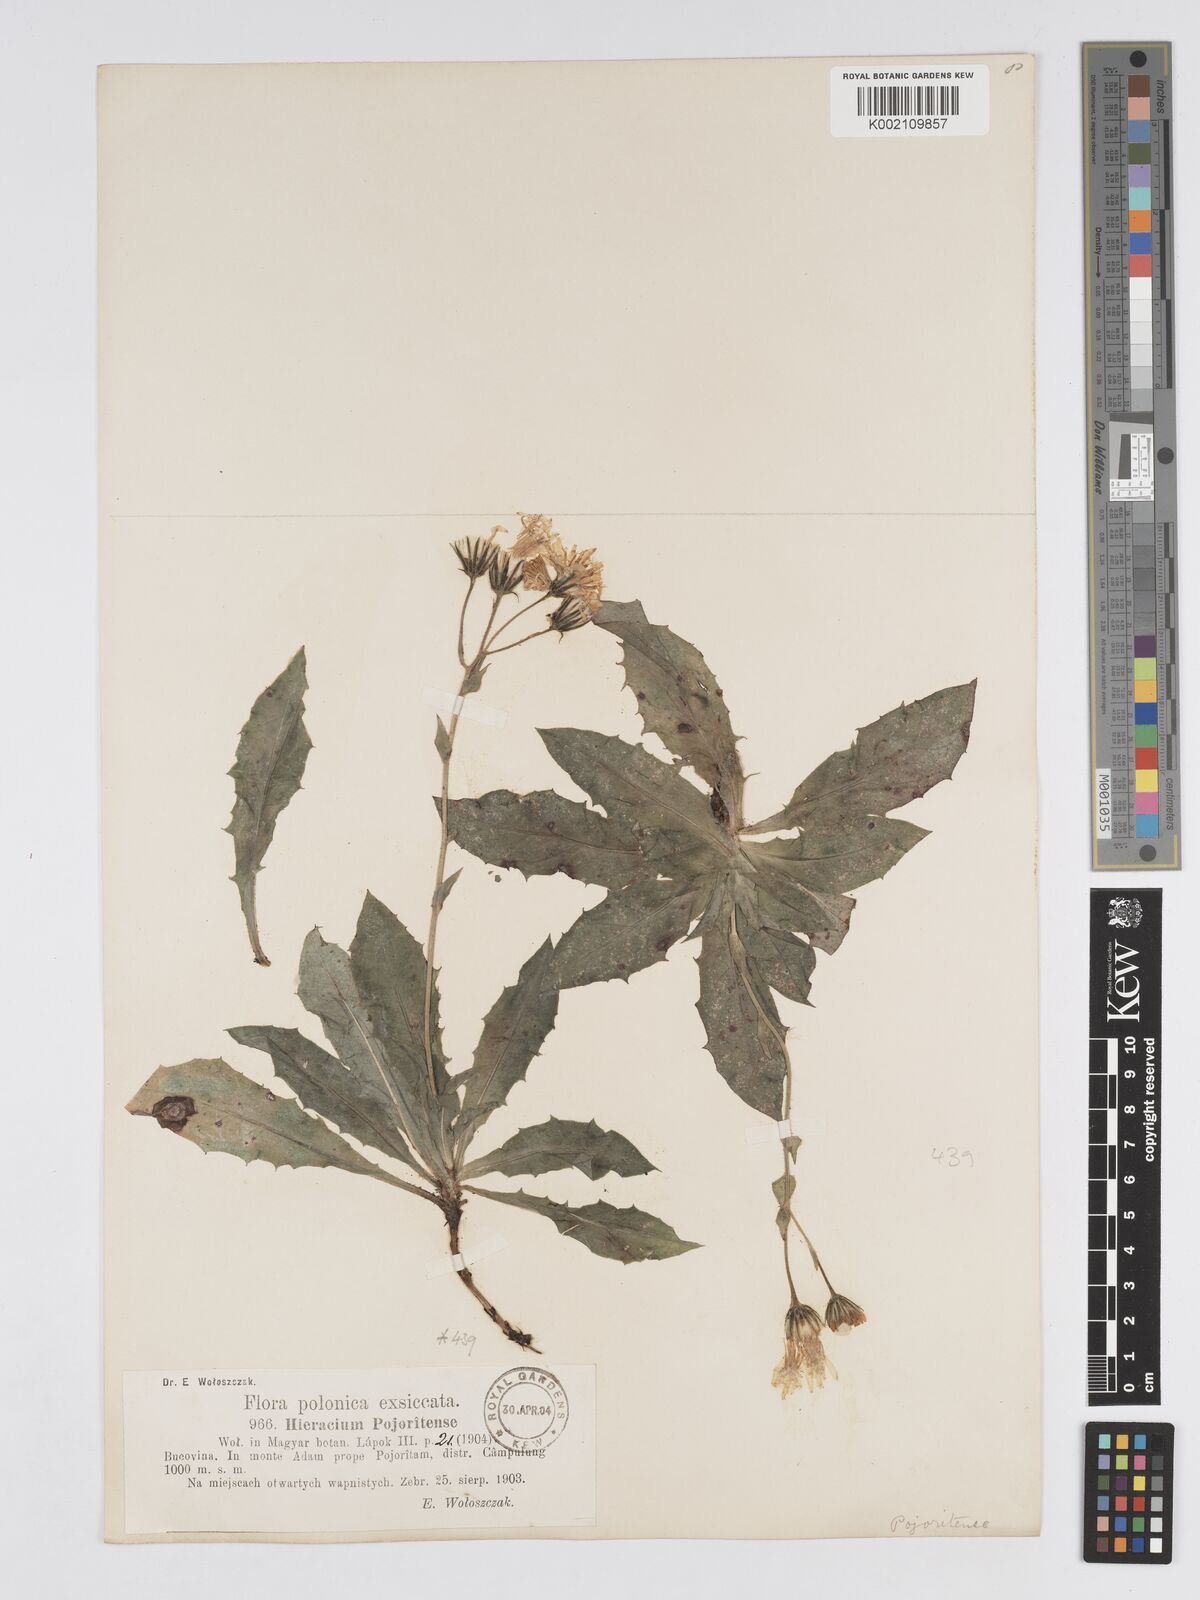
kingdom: Plantae
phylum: Tracheophyta
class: Magnoliopsida
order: Asterales
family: Asteraceae
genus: Hieracium
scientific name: Hieracium pojoritense
